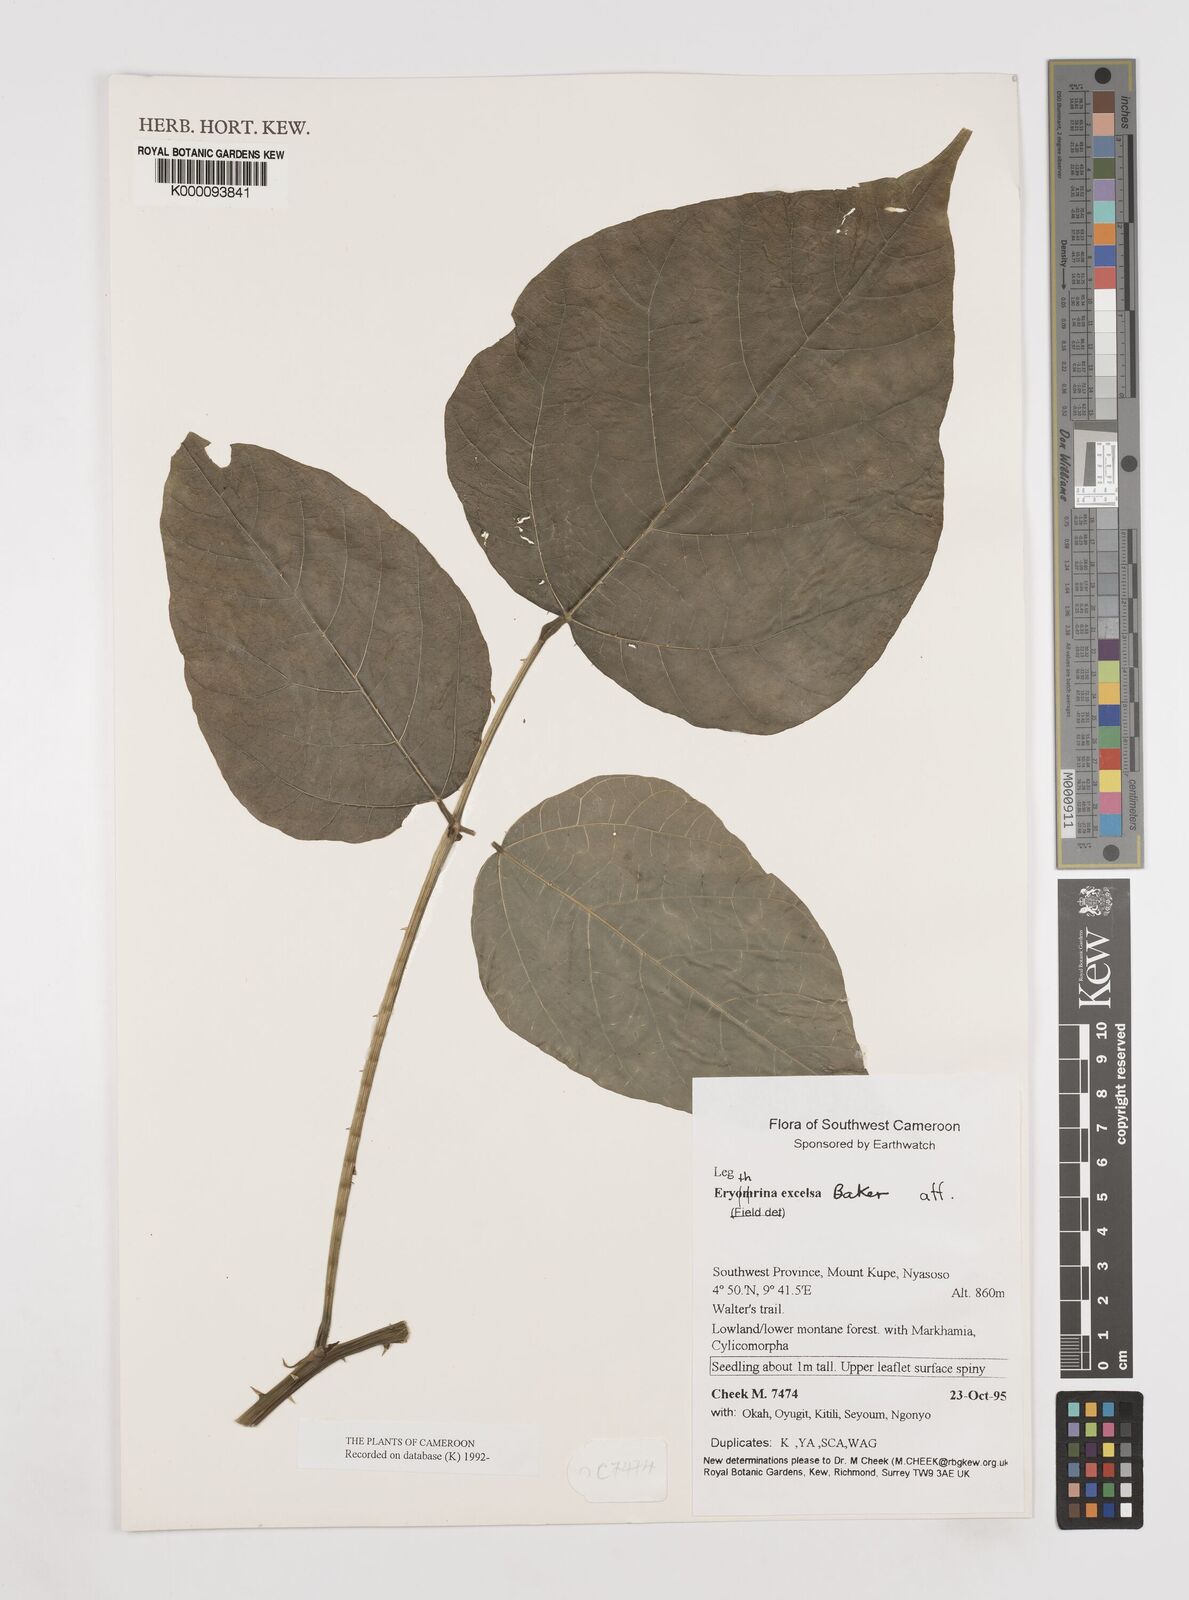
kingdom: Plantae
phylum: Tracheophyta
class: Magnoliopsida
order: Fabales
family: Fabaceae
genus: Erythrina
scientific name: Erythrina
